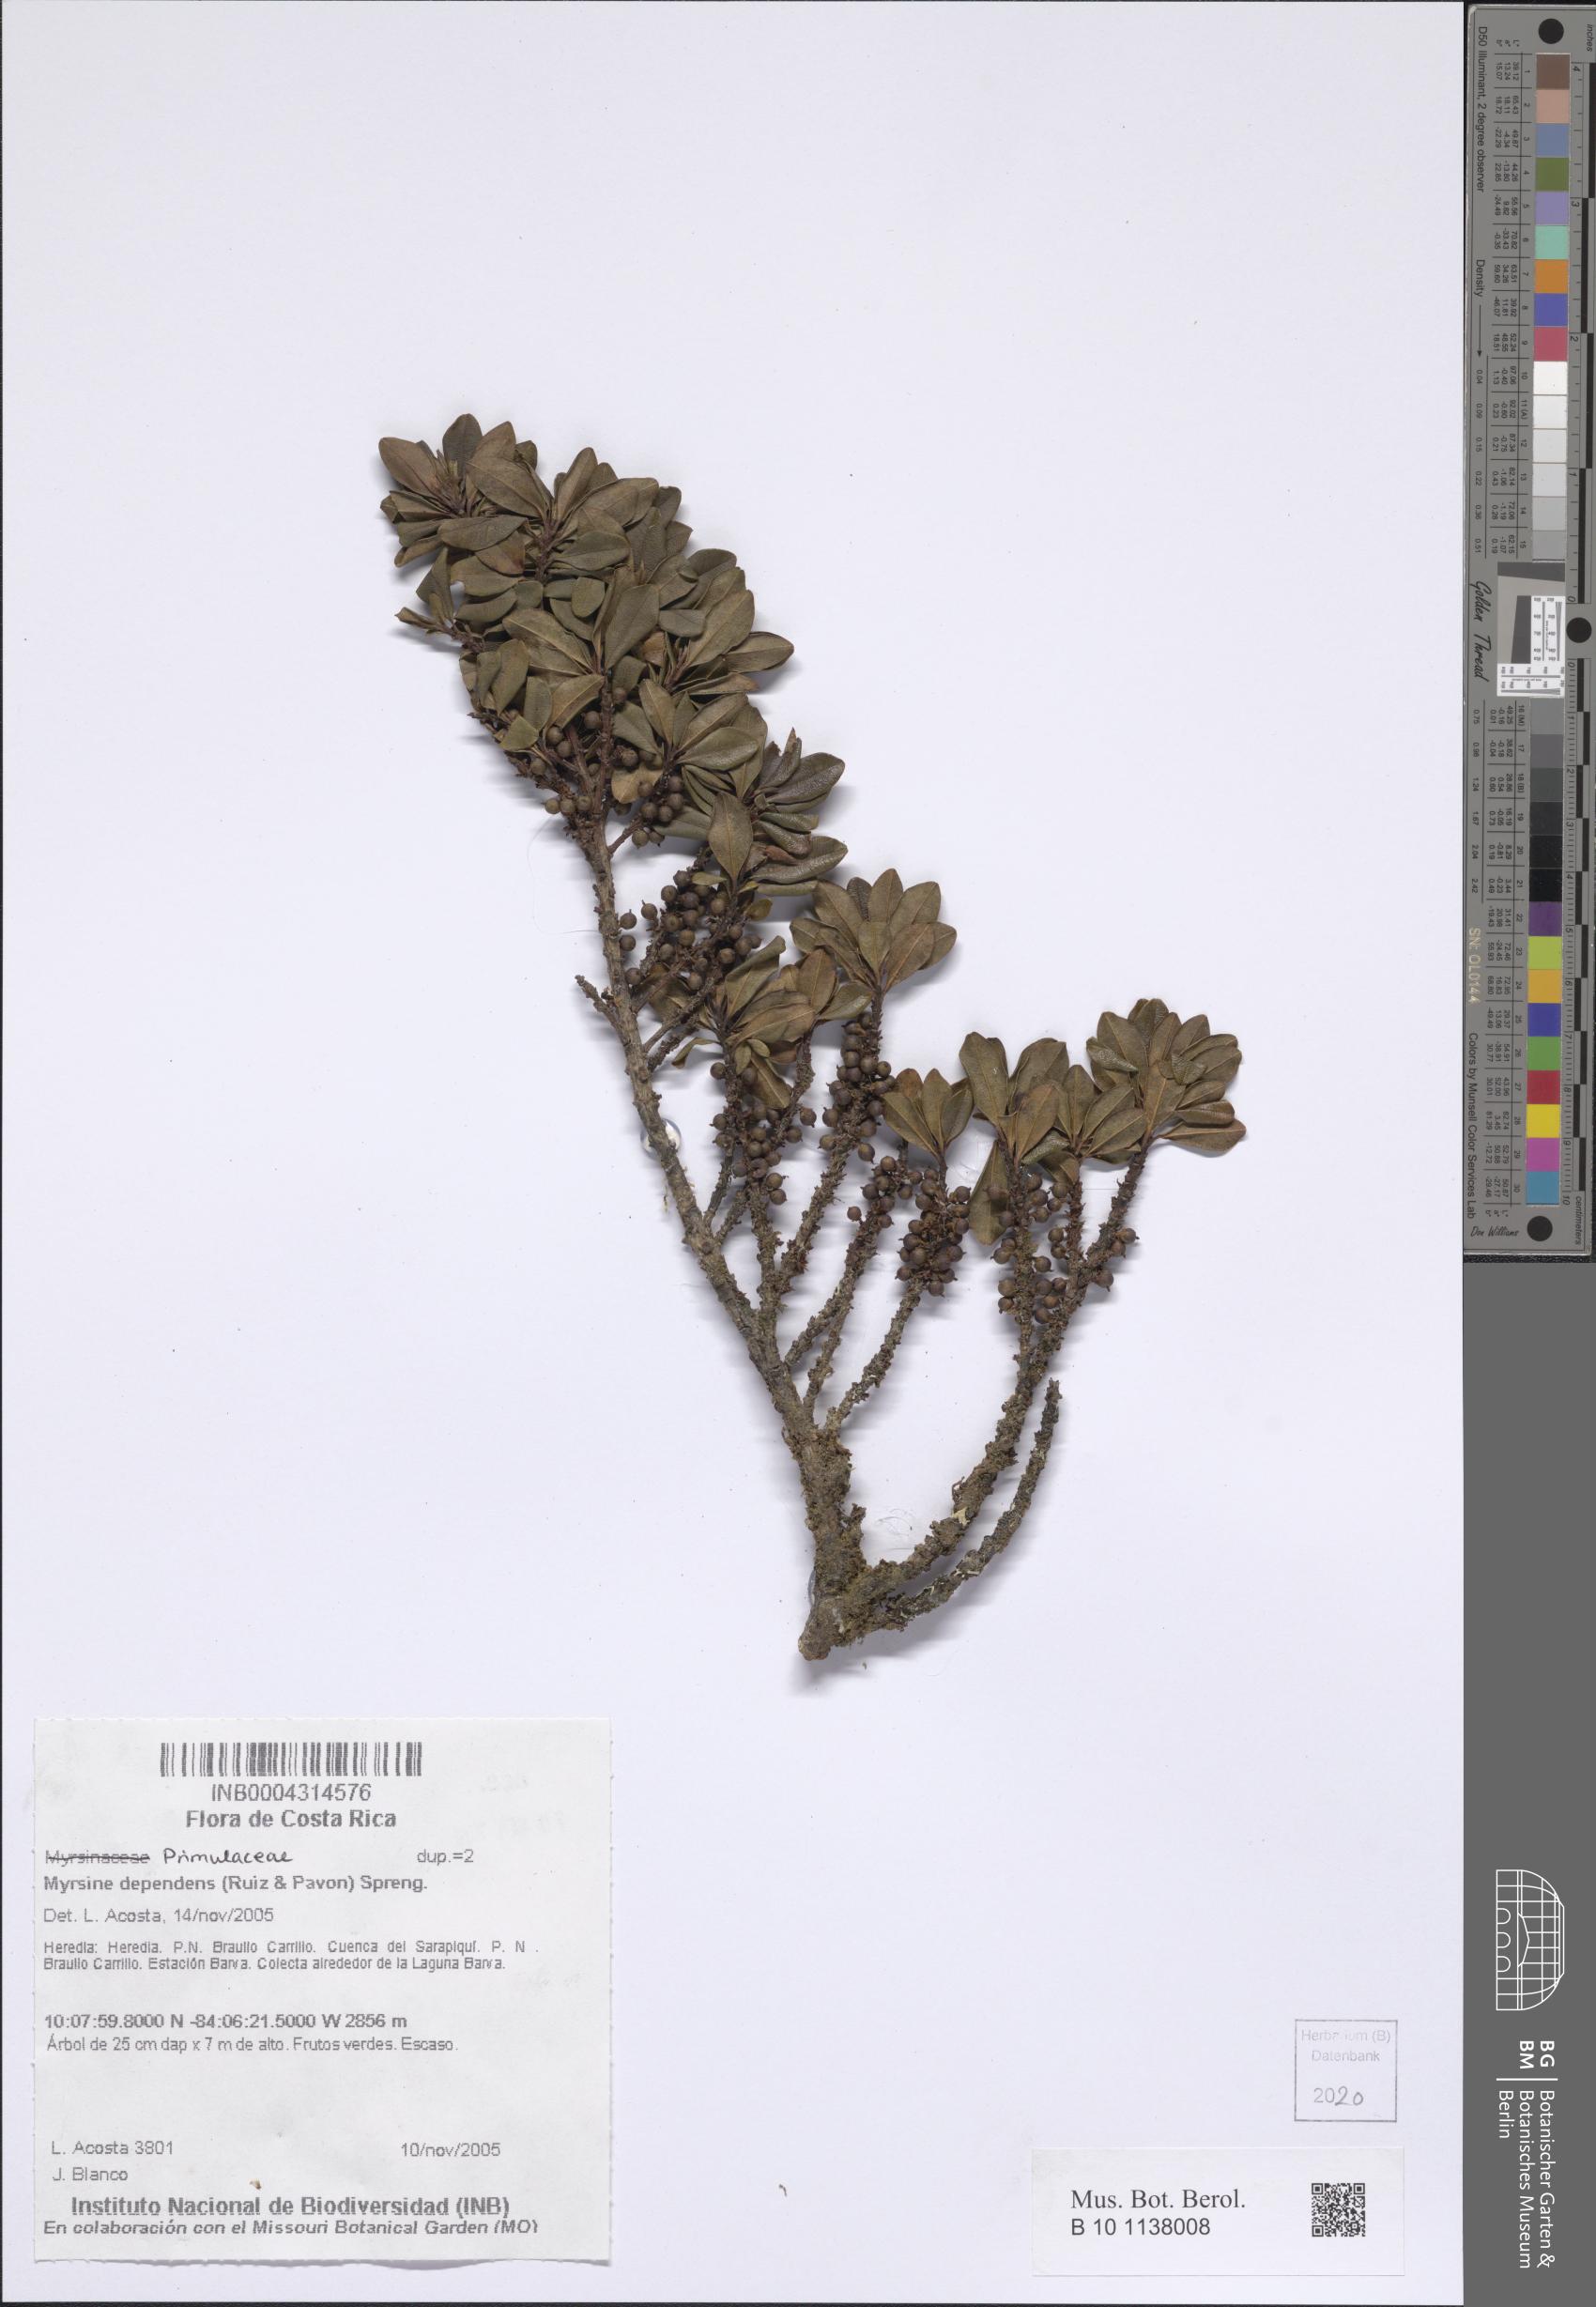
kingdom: Plantae
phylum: Tracheophyta
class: Magnoliopsida
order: Ericales
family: Primulaceae
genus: Myrsine
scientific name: Myrsine dependens
